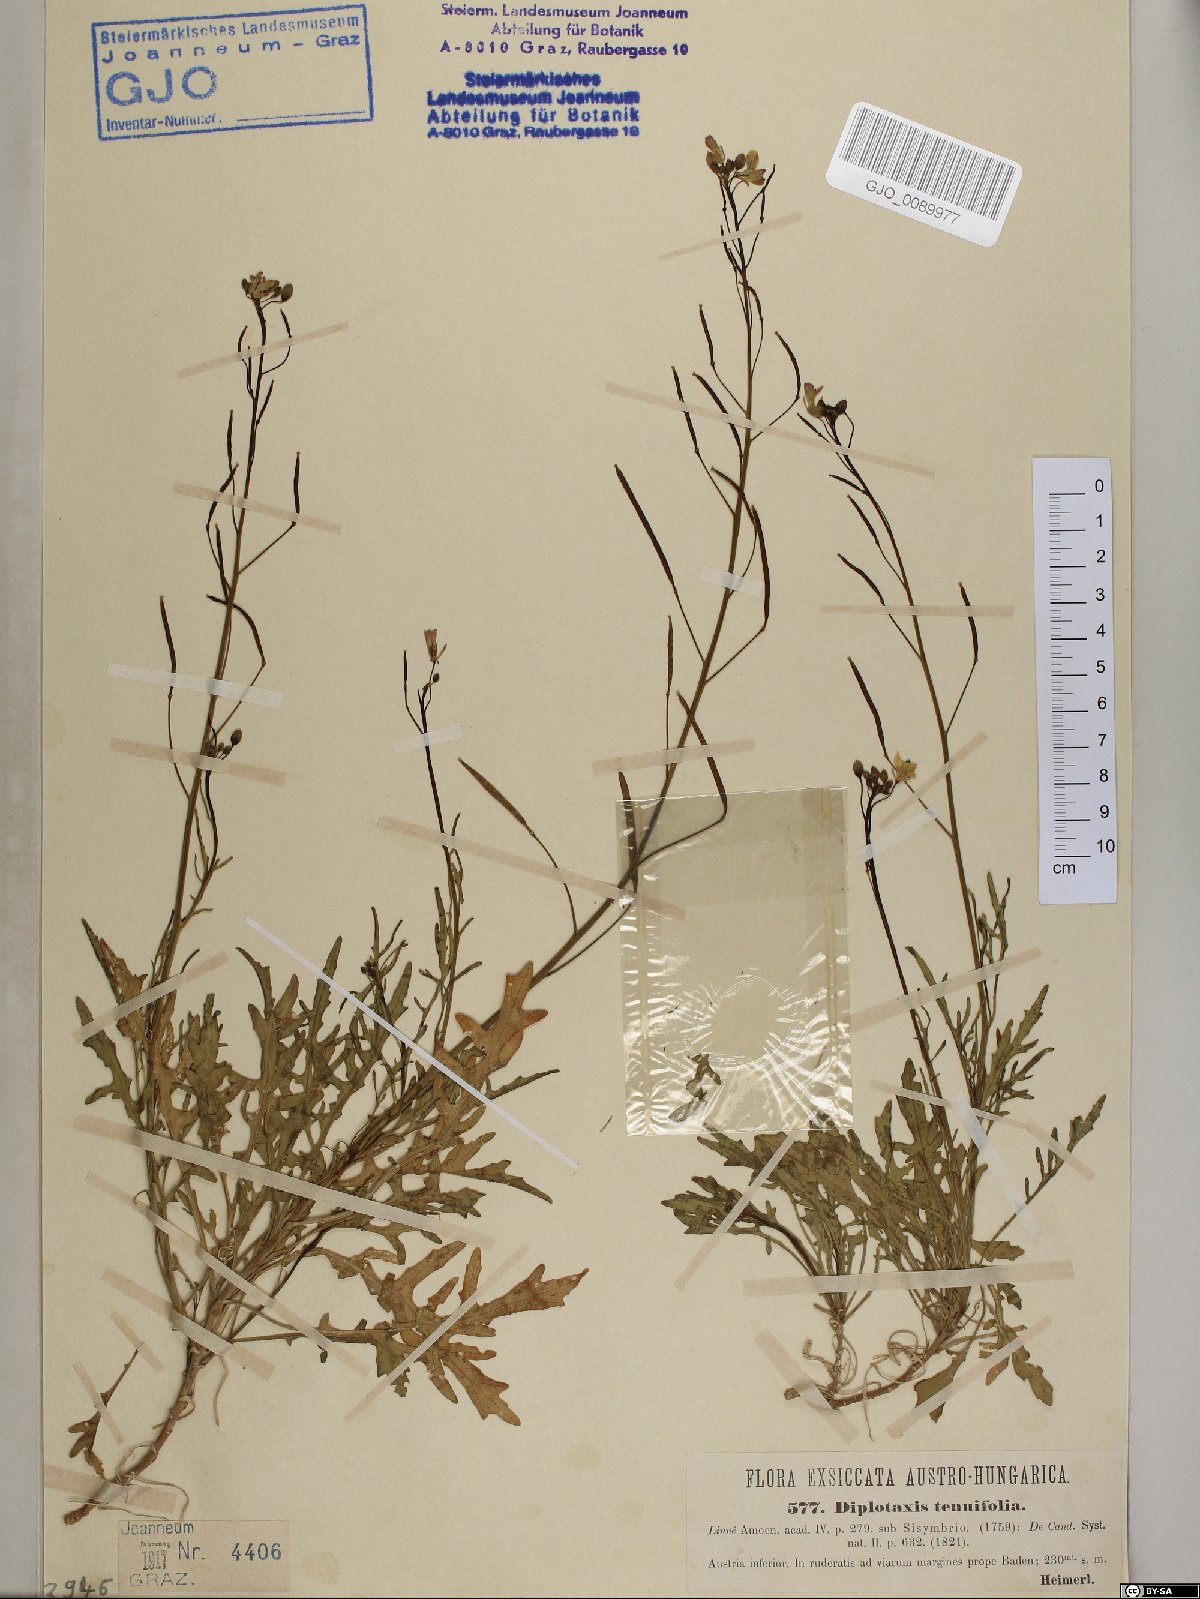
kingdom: Plantae
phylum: Tracheophyta
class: Magnoliopsida
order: Brassicales
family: Brassicaceae
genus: Diplotaxis
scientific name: Diplotaxis tenuifolia
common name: Perennial wall-rocket
